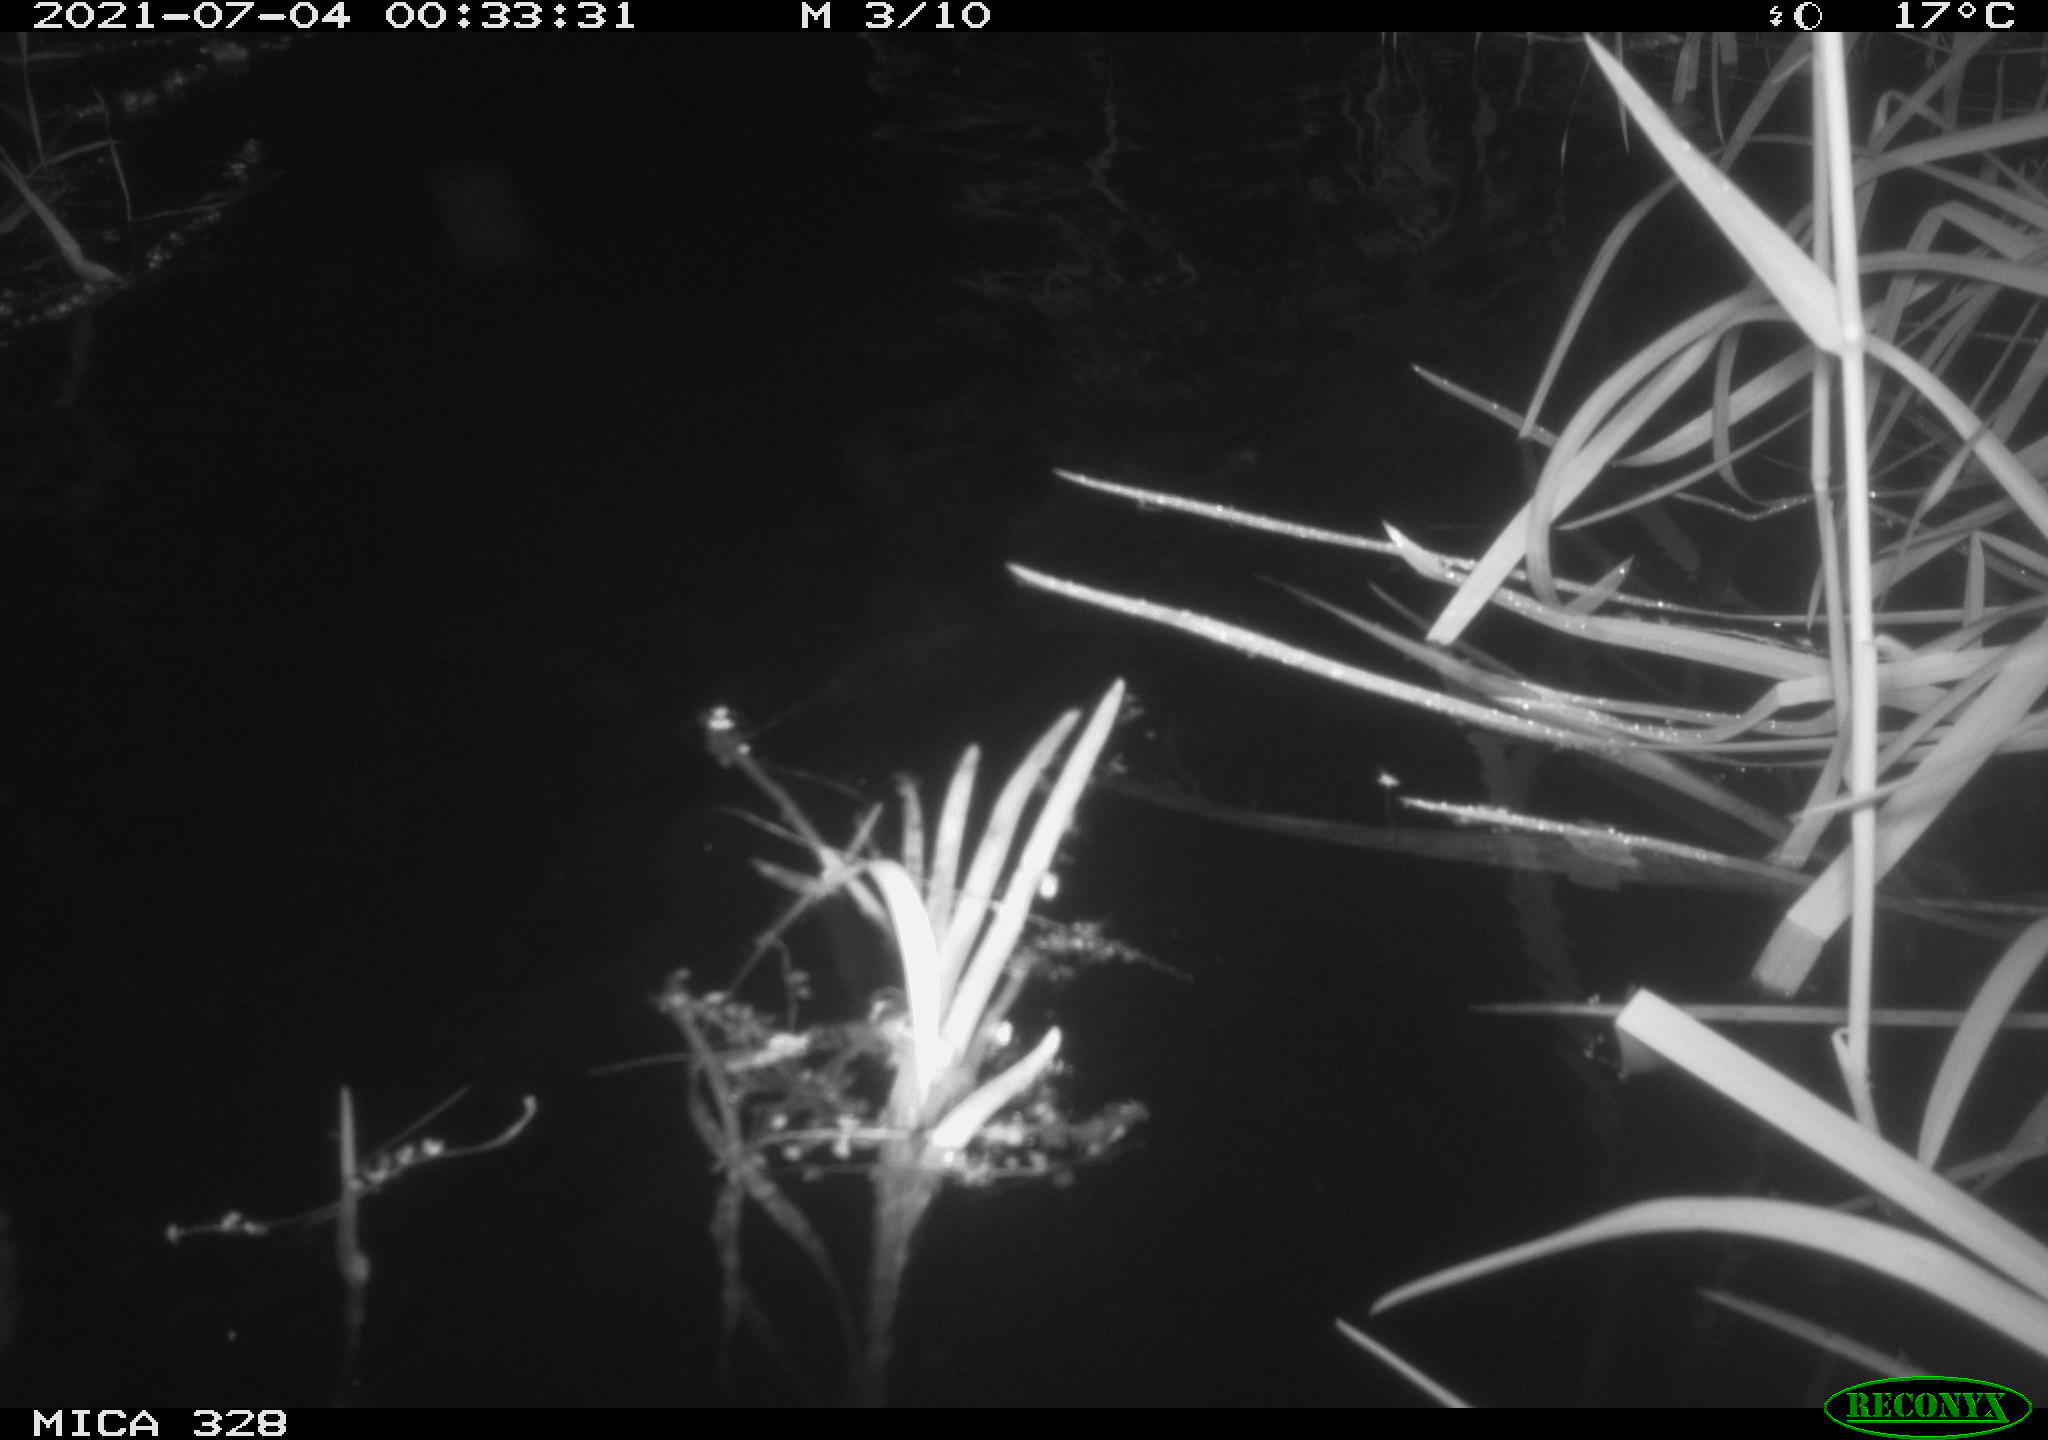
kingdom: Animalia
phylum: Chordata
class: Mammalia
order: Rodentia
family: Cricetidae
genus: Ondatra
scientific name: Ondatra zibethicus
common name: Muskrat
